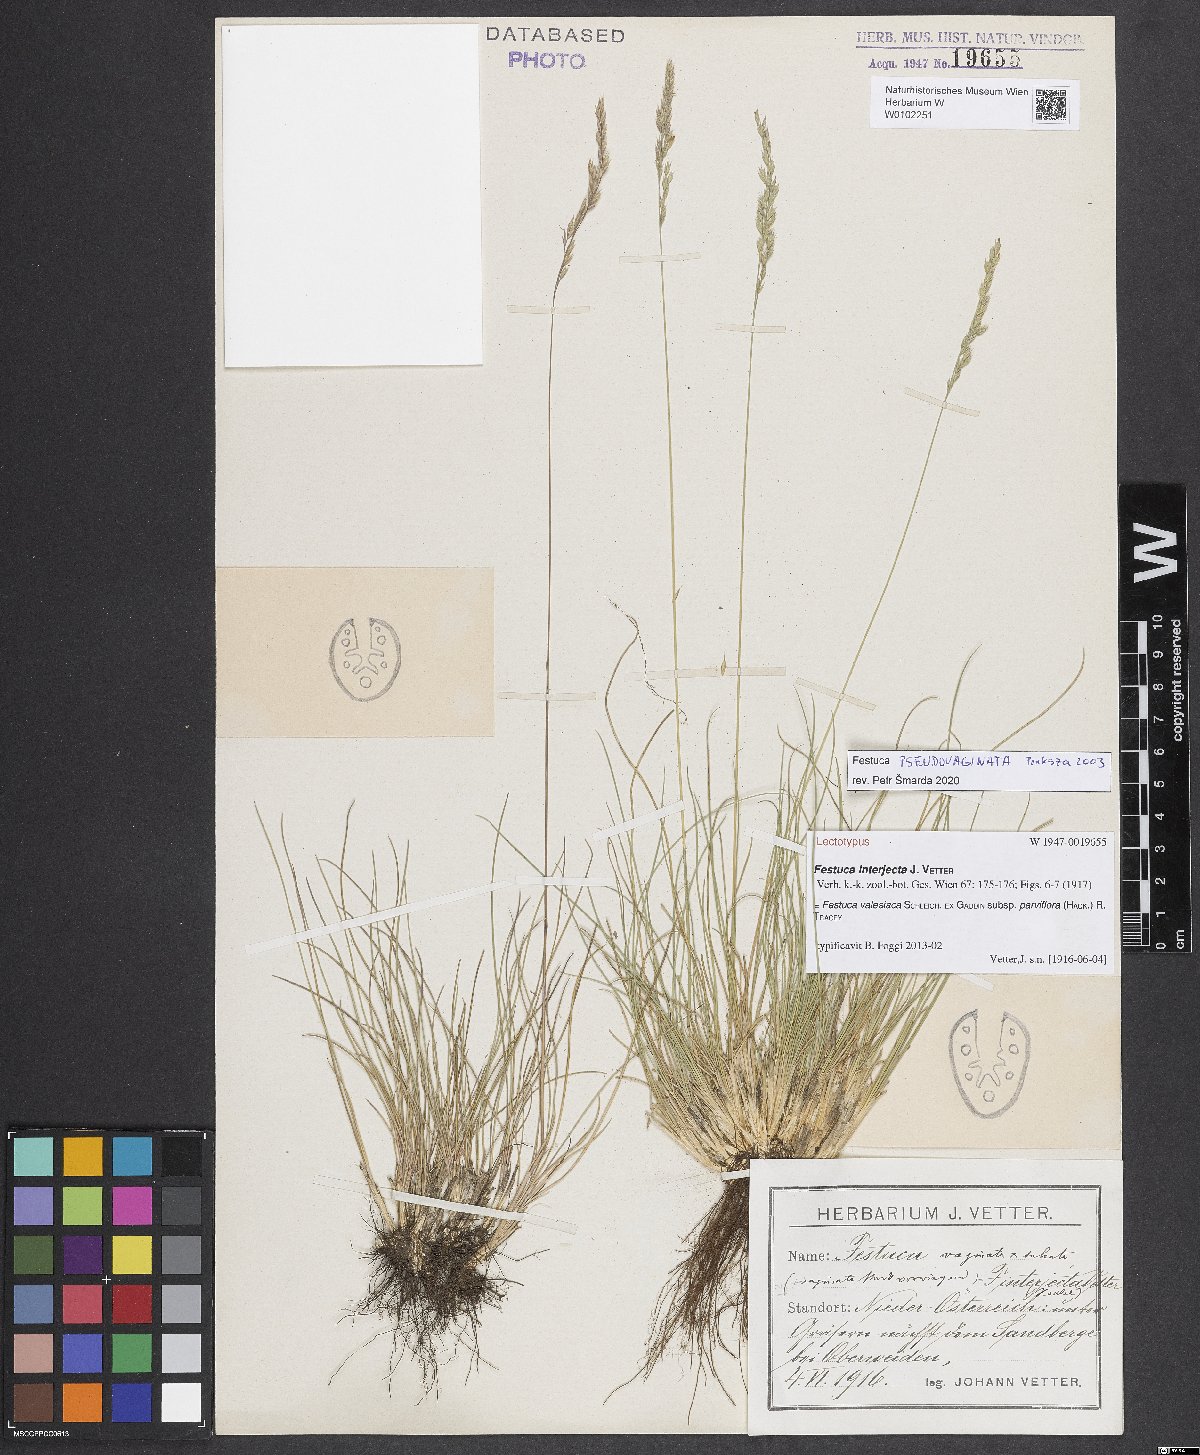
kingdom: Plantae
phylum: Tracheophyta
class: Liliopsida
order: Poales
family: Poaceae
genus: Festuca
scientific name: Festuca valesiaca
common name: Volga fescue
